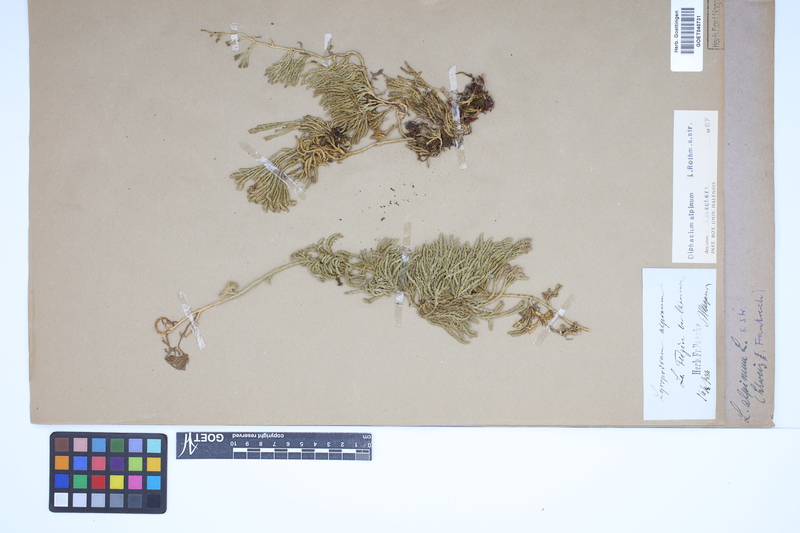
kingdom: Plantae
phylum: Tracheophyta
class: Lycopodiopsida
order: Lycopodiales
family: Lycopodiaceae
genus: Diphasiastrum
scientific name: Diphasiastrum alpinum
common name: Alpine clubmoss
